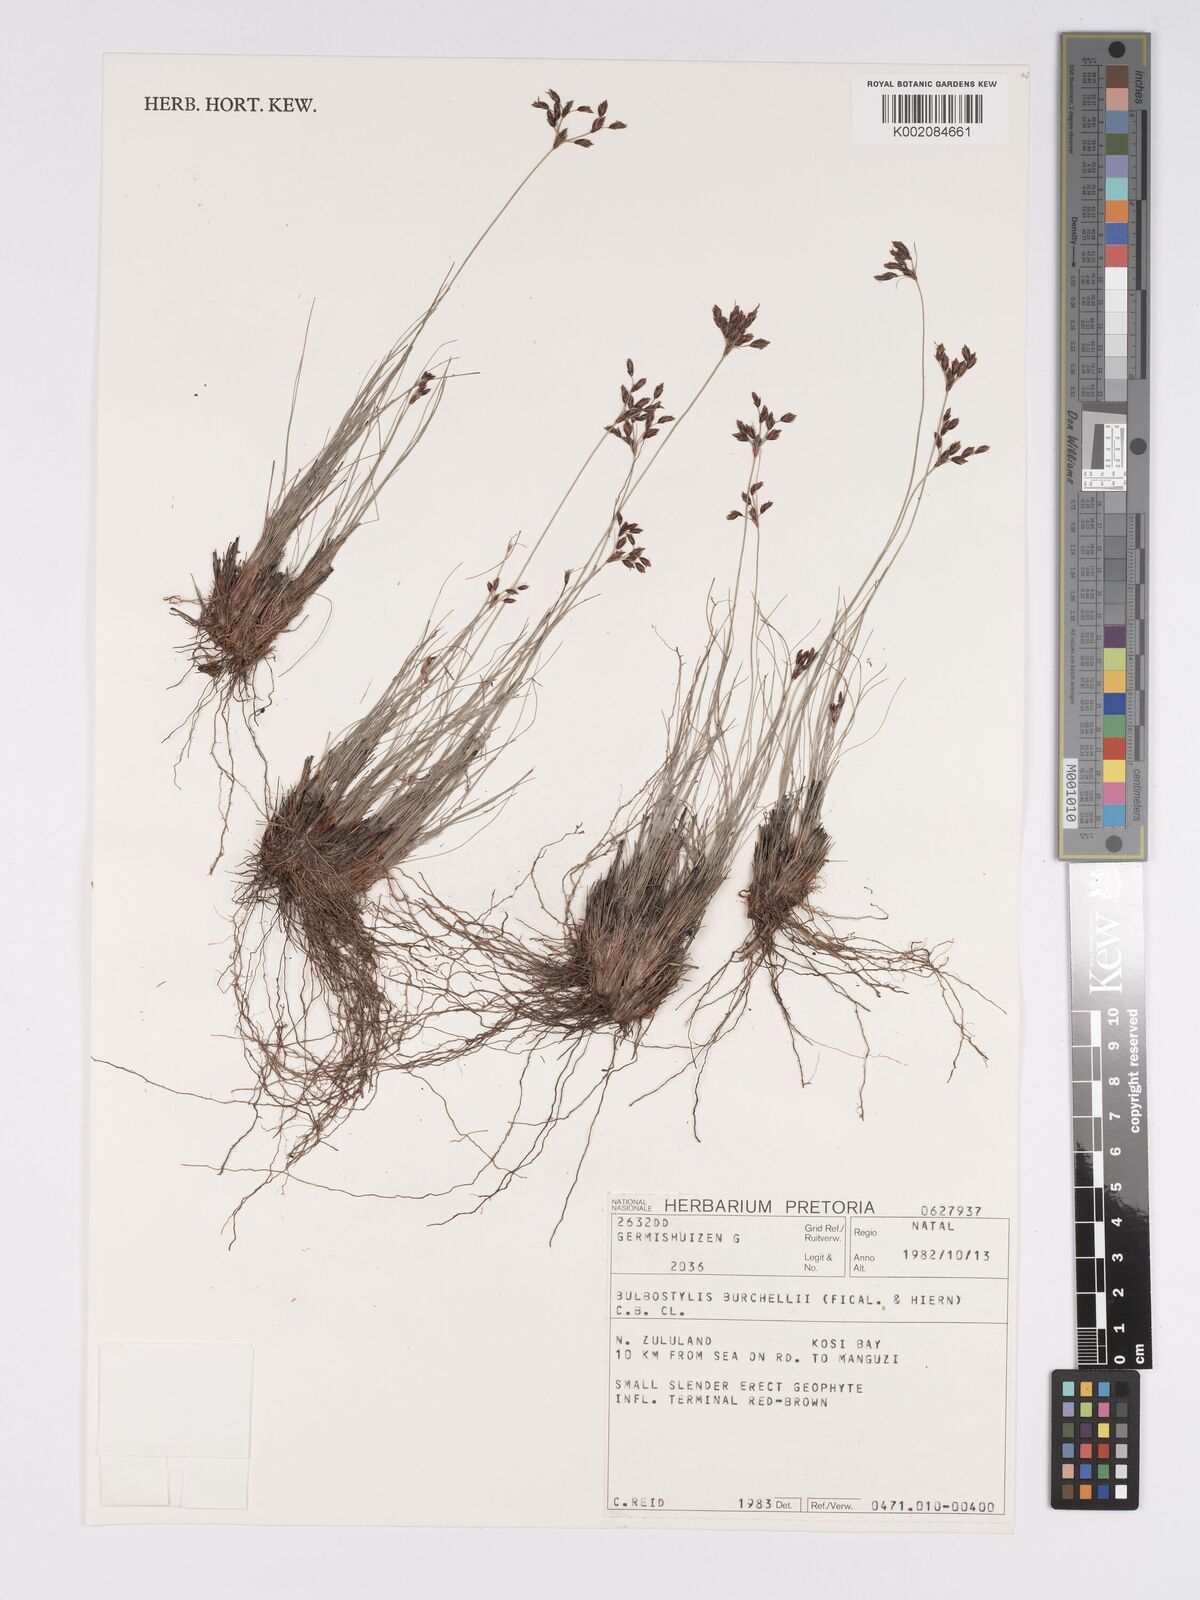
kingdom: Plantae
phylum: Tracheophyta
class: Liliopsida
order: Poales
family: Cyperaceae
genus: Bulbostylis
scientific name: Bulbostylis burchellii
